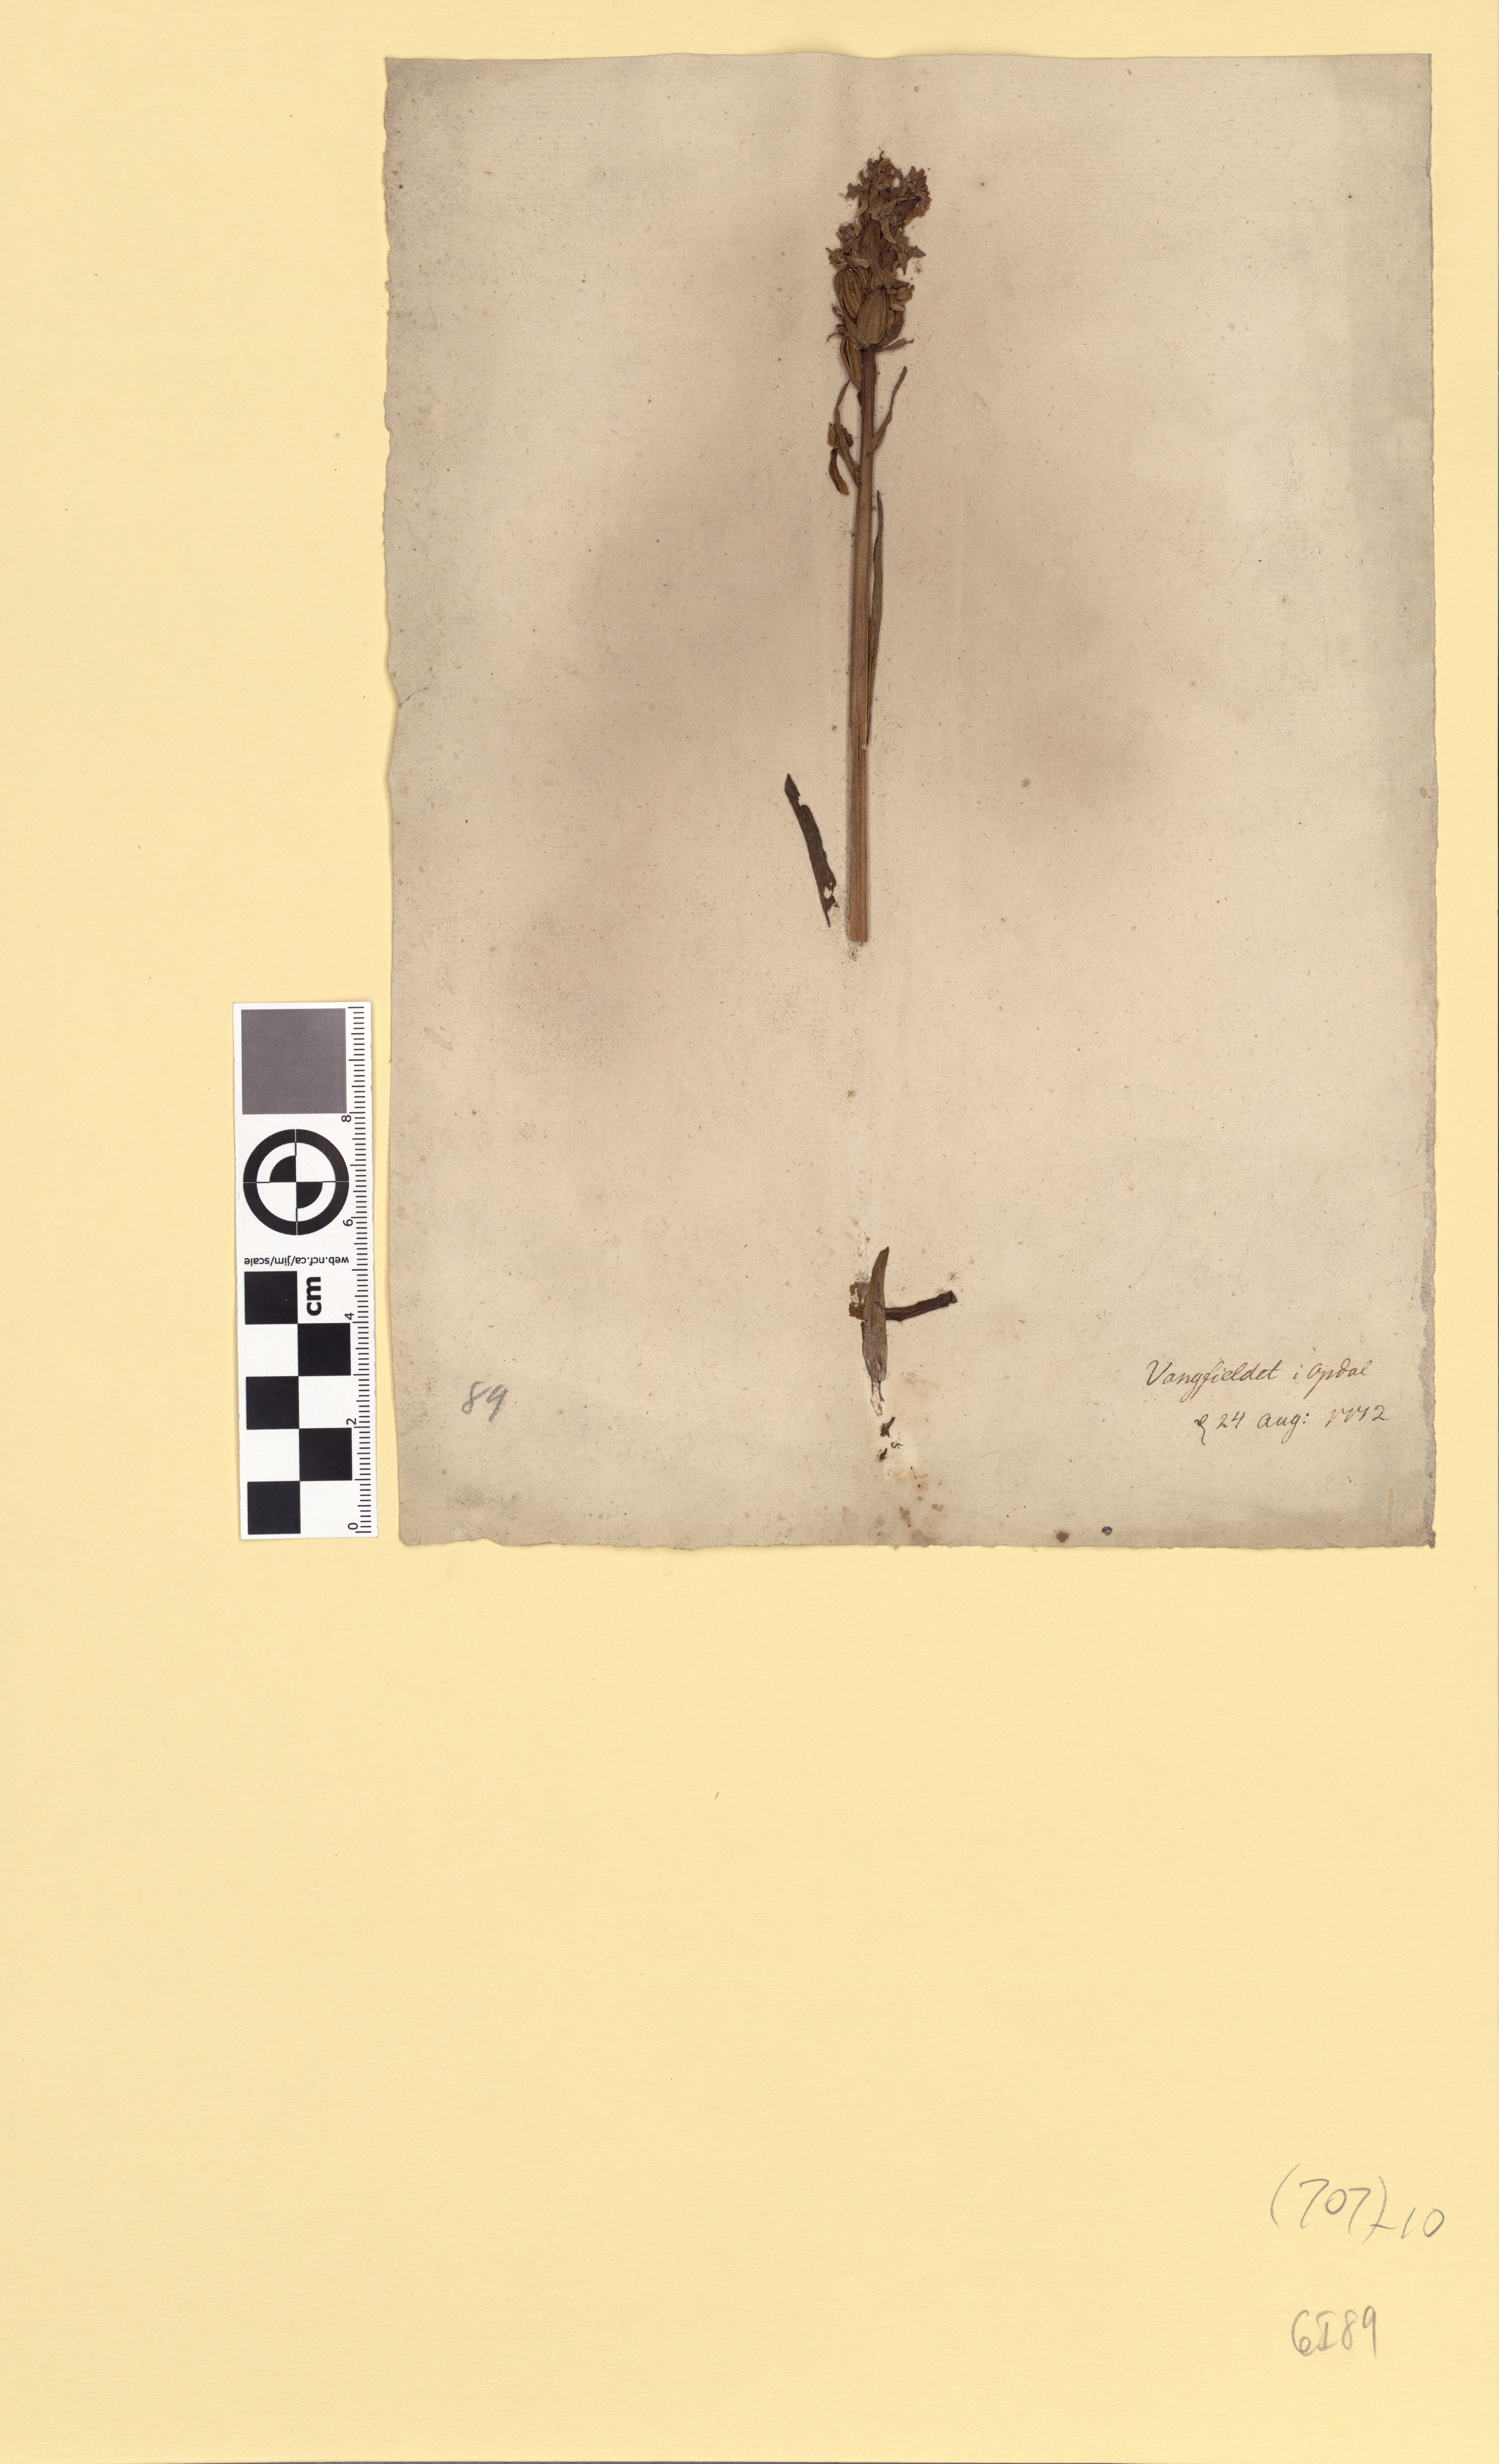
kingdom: Plantae
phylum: Tracheophyta
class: Liliopsida
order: Asparagales
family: Orchidaceae
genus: Dactylorhiza
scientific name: Dactylorhiza maculata
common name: Heath spotted-orchid
